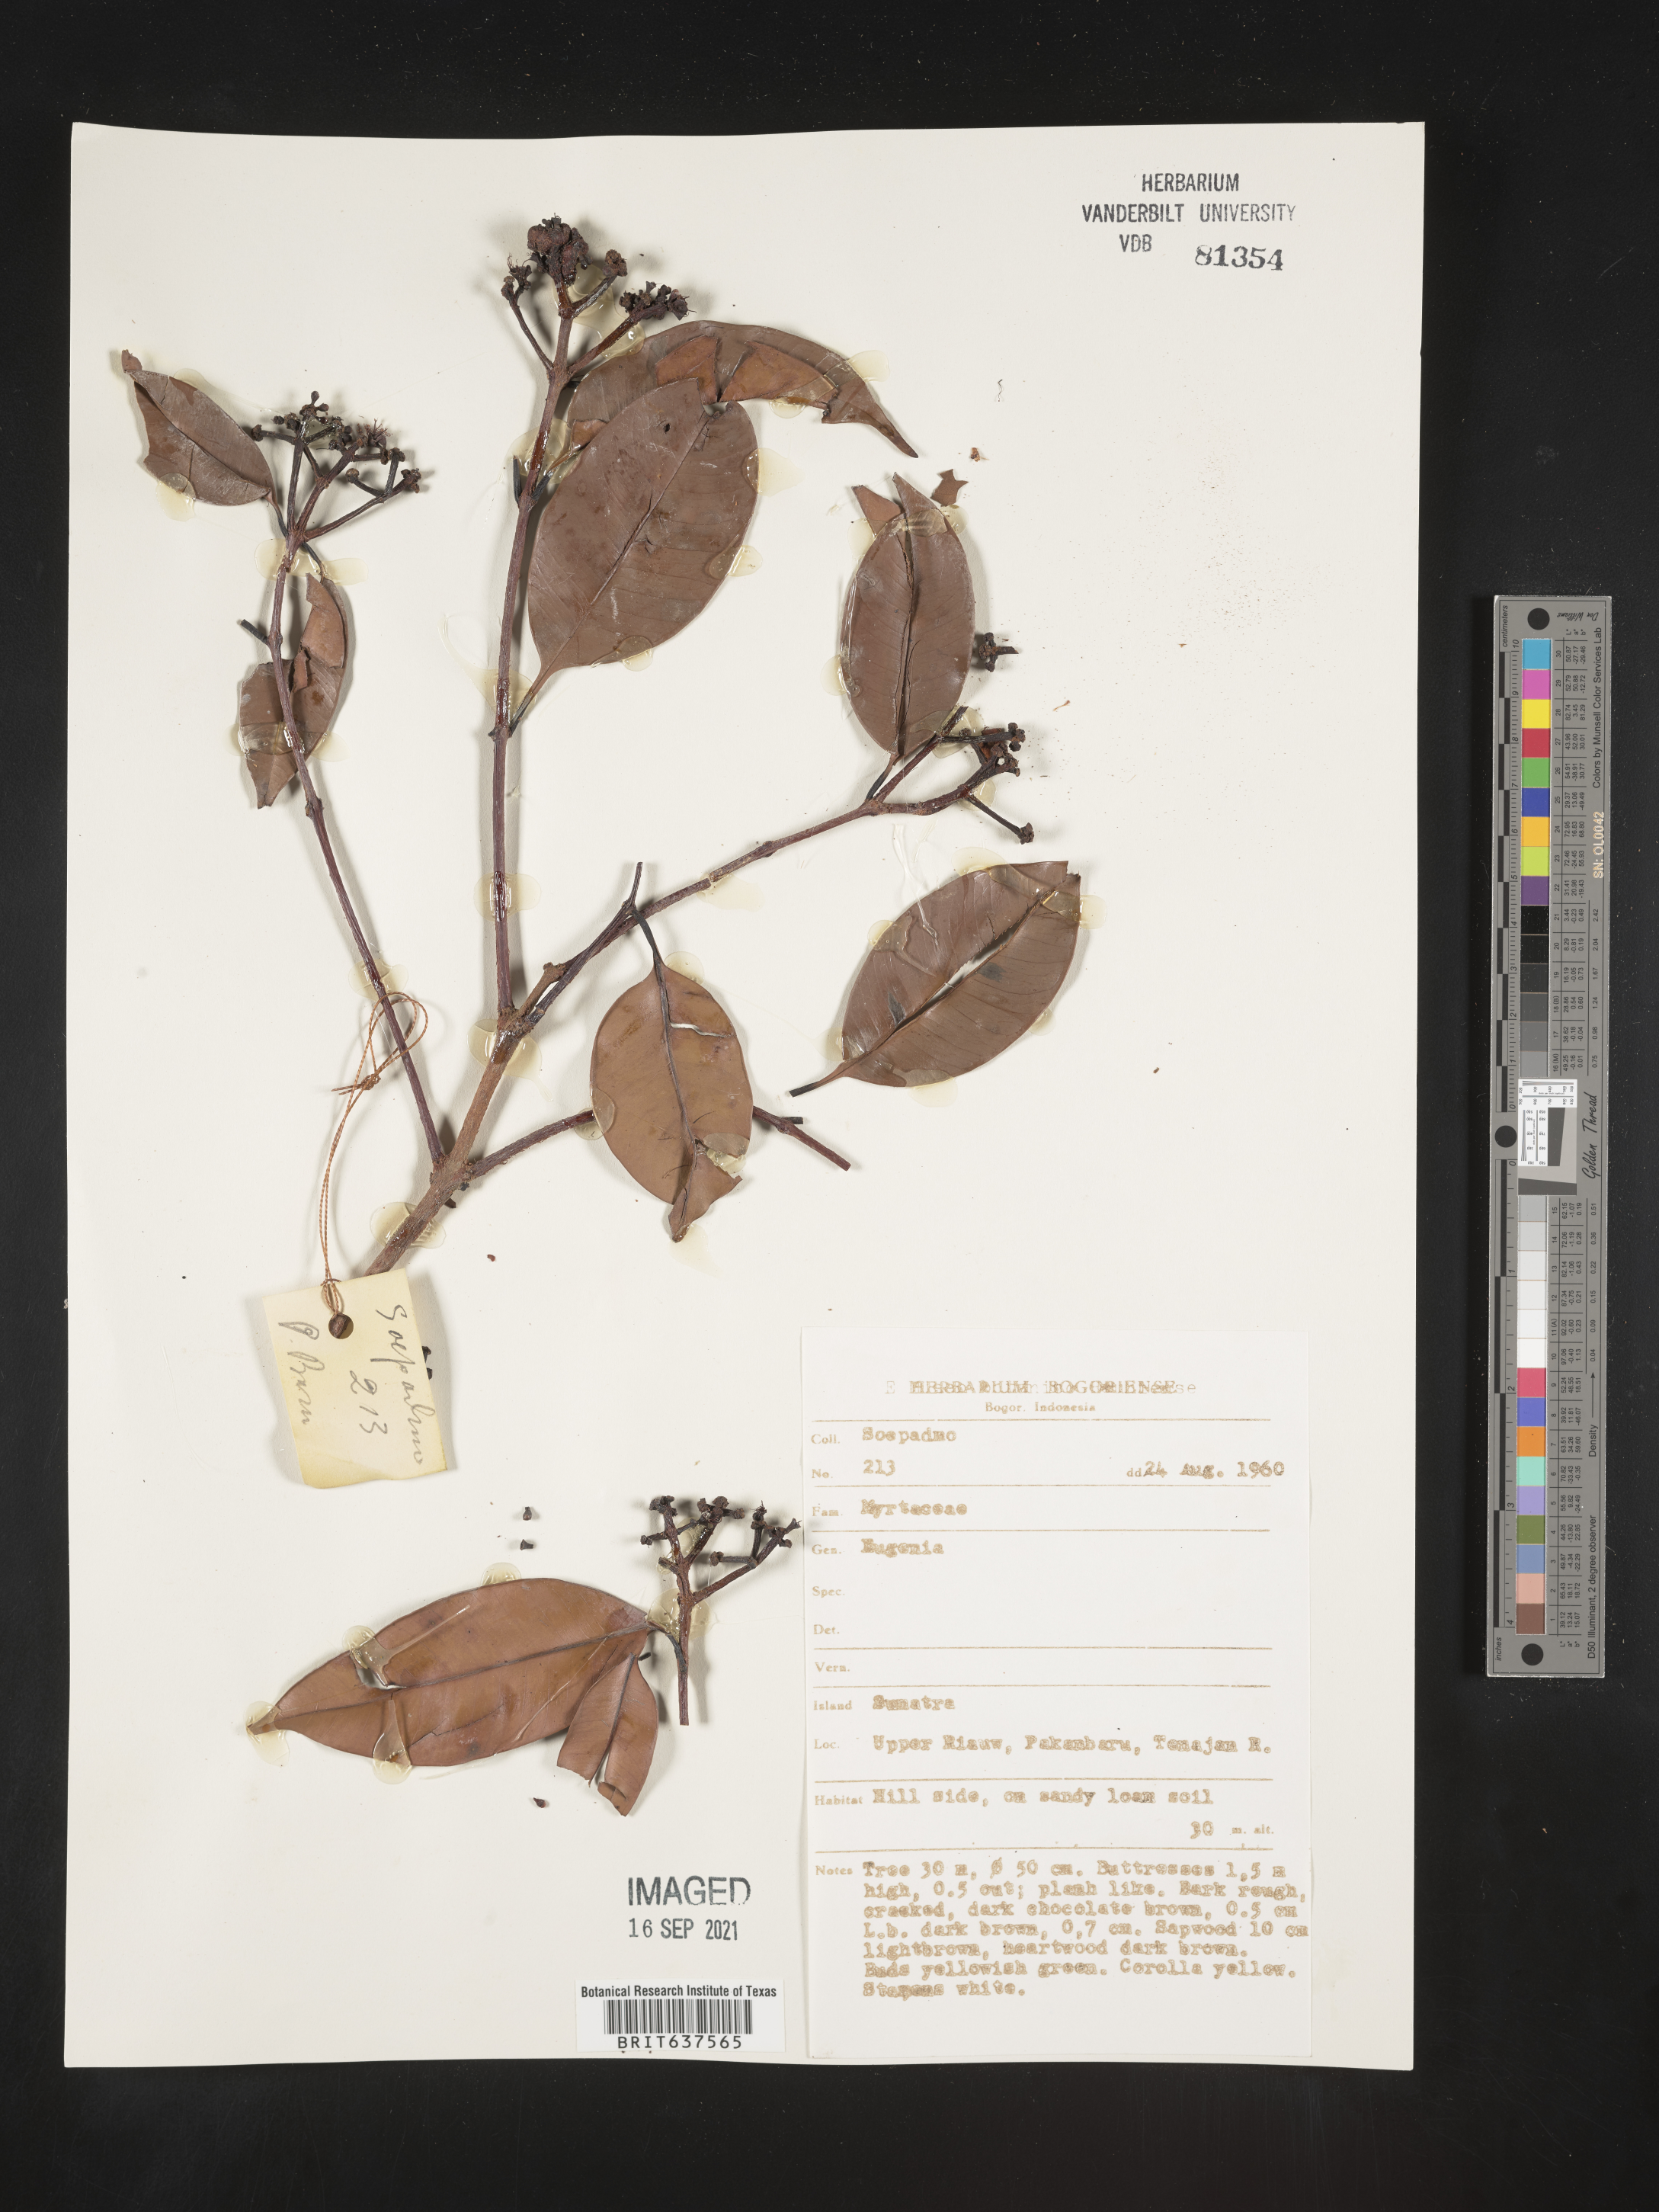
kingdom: Plantae
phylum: Tracheophyta
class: Magnoliopsida
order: Myrtales
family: Myrtaceae
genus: Eugenia
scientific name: Eugenia
